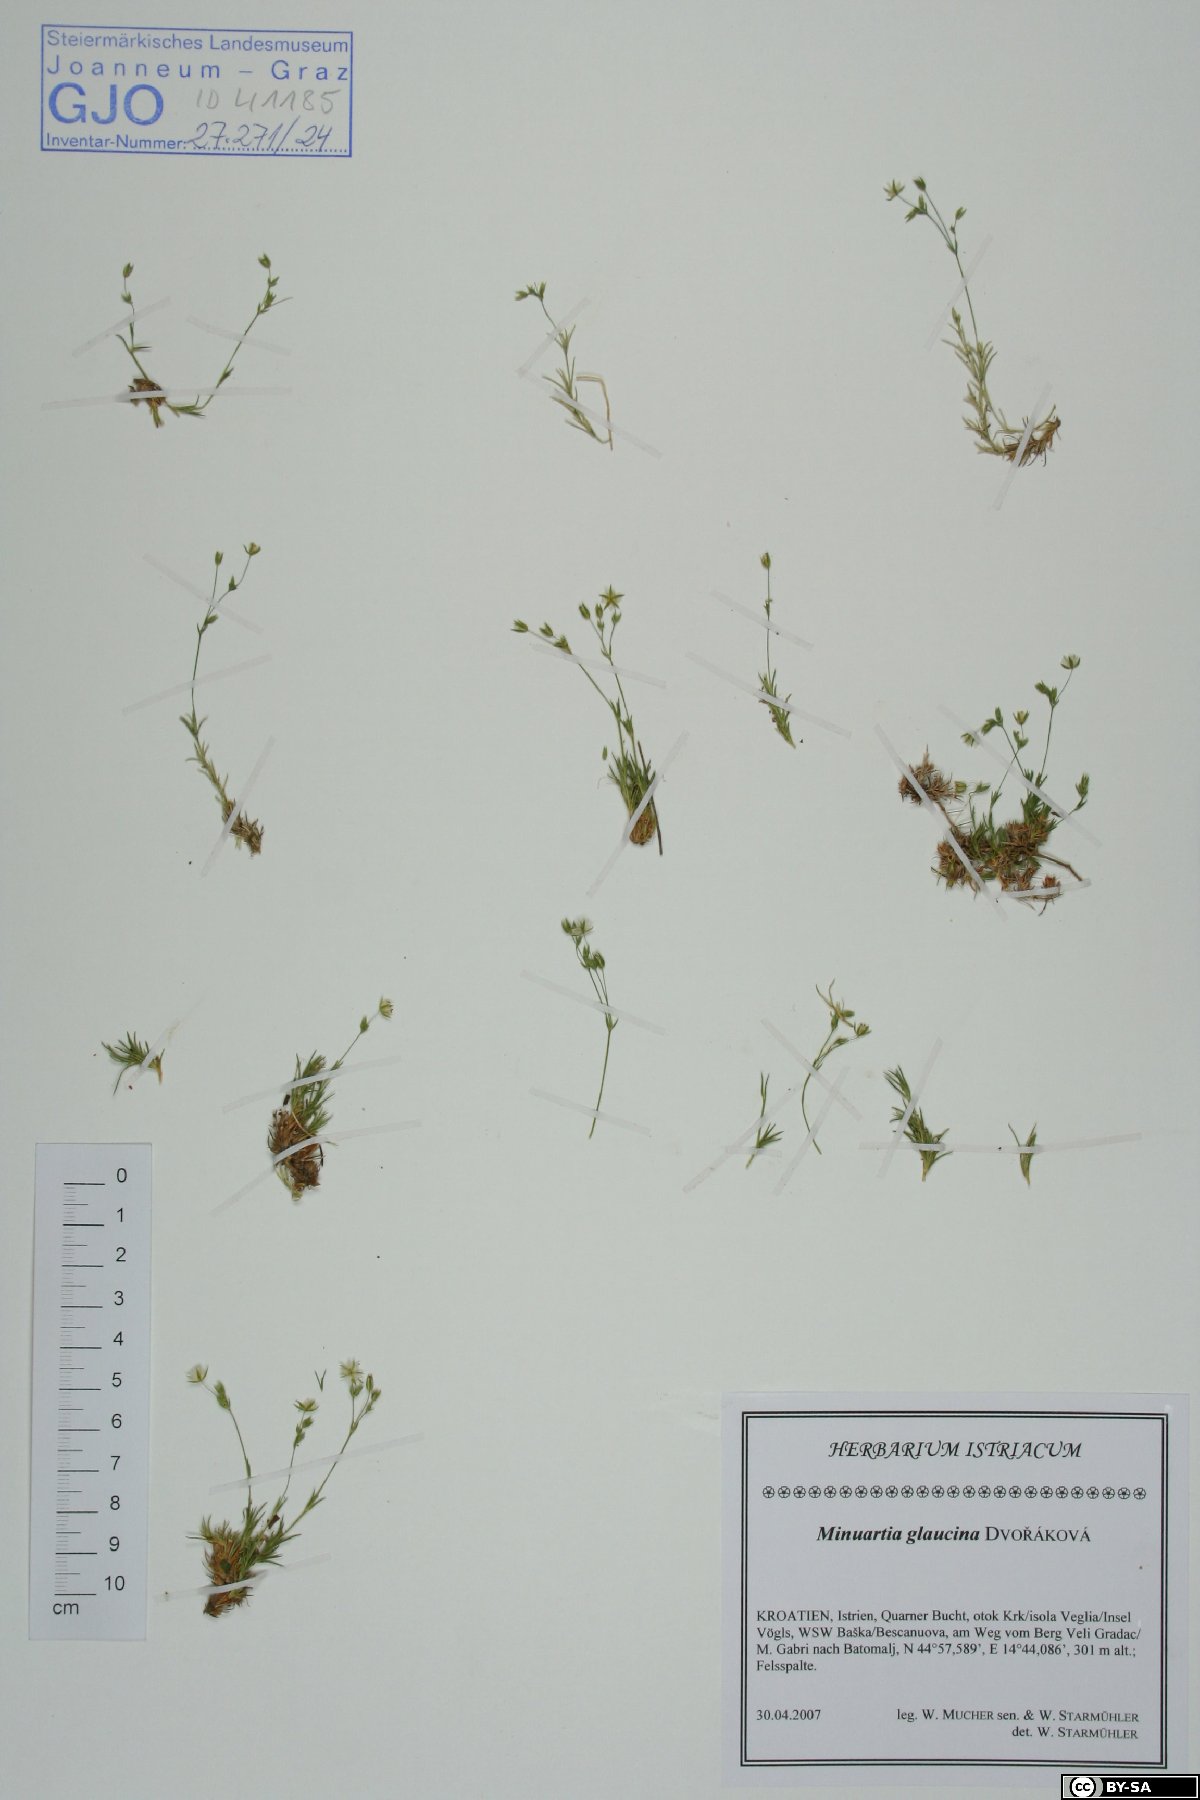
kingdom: Plantae
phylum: Tracheophyta
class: Magnoliopsida
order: Caryophyllales
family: Caryophyllaceae
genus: Sabulina
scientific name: Sabulina glaucina
